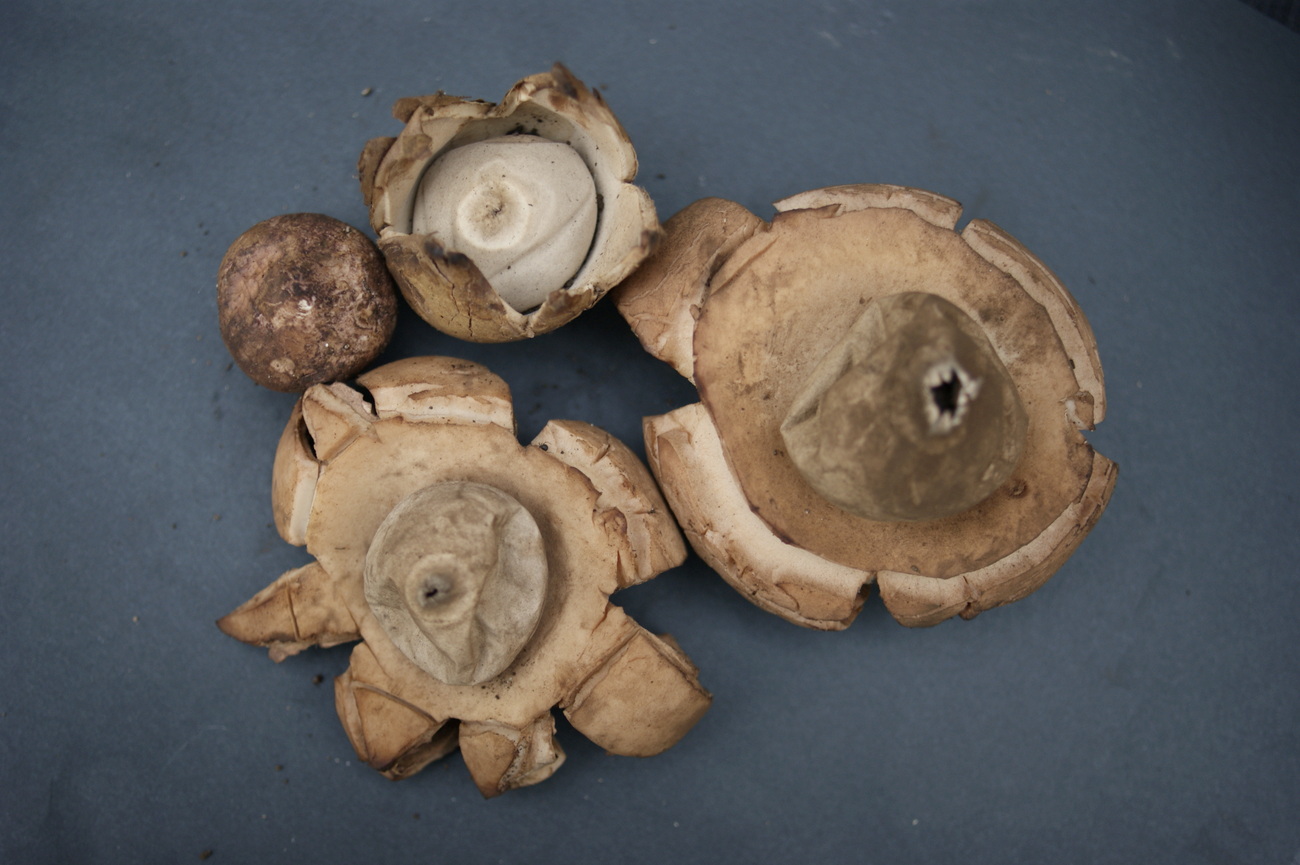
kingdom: Fungi
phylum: Basidiomycota
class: Agaricomycetes
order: Geastrales
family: Geastraceae
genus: Geastrum
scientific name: Geastrum michelianum
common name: kødet stjernebold
